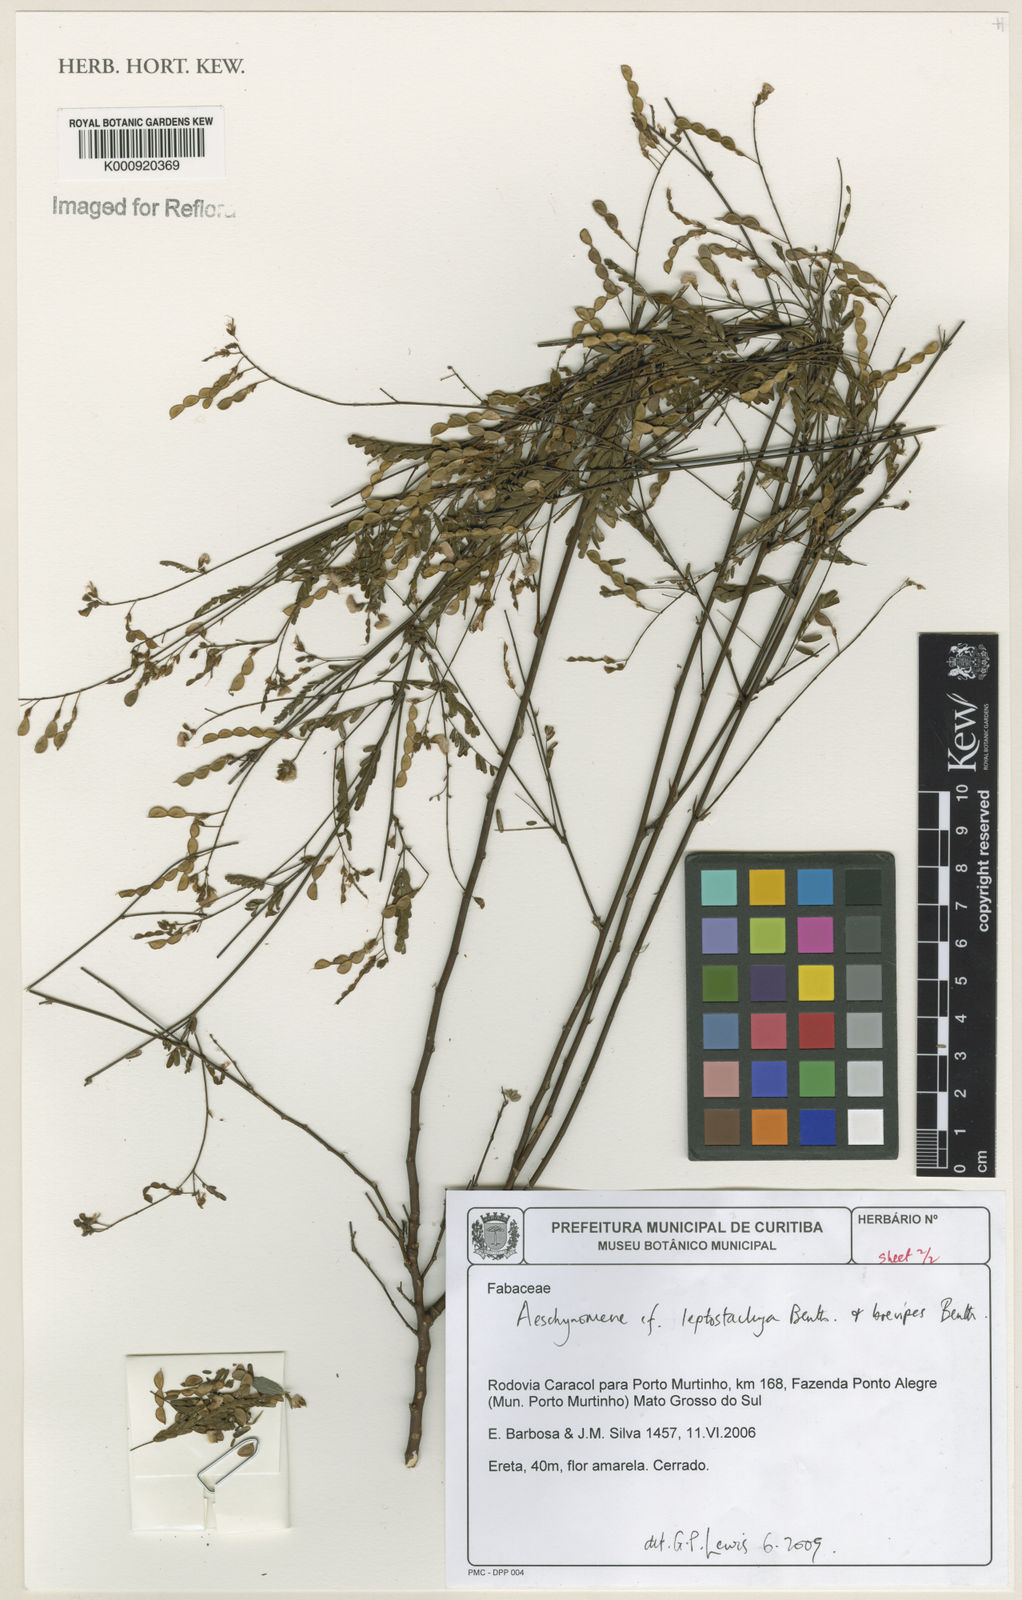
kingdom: Plantae
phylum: Tracheophyta
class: Magnoliopsida
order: Fabales
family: Fabaceae
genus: Ctenodon
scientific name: Ctenodon leptostachyus
